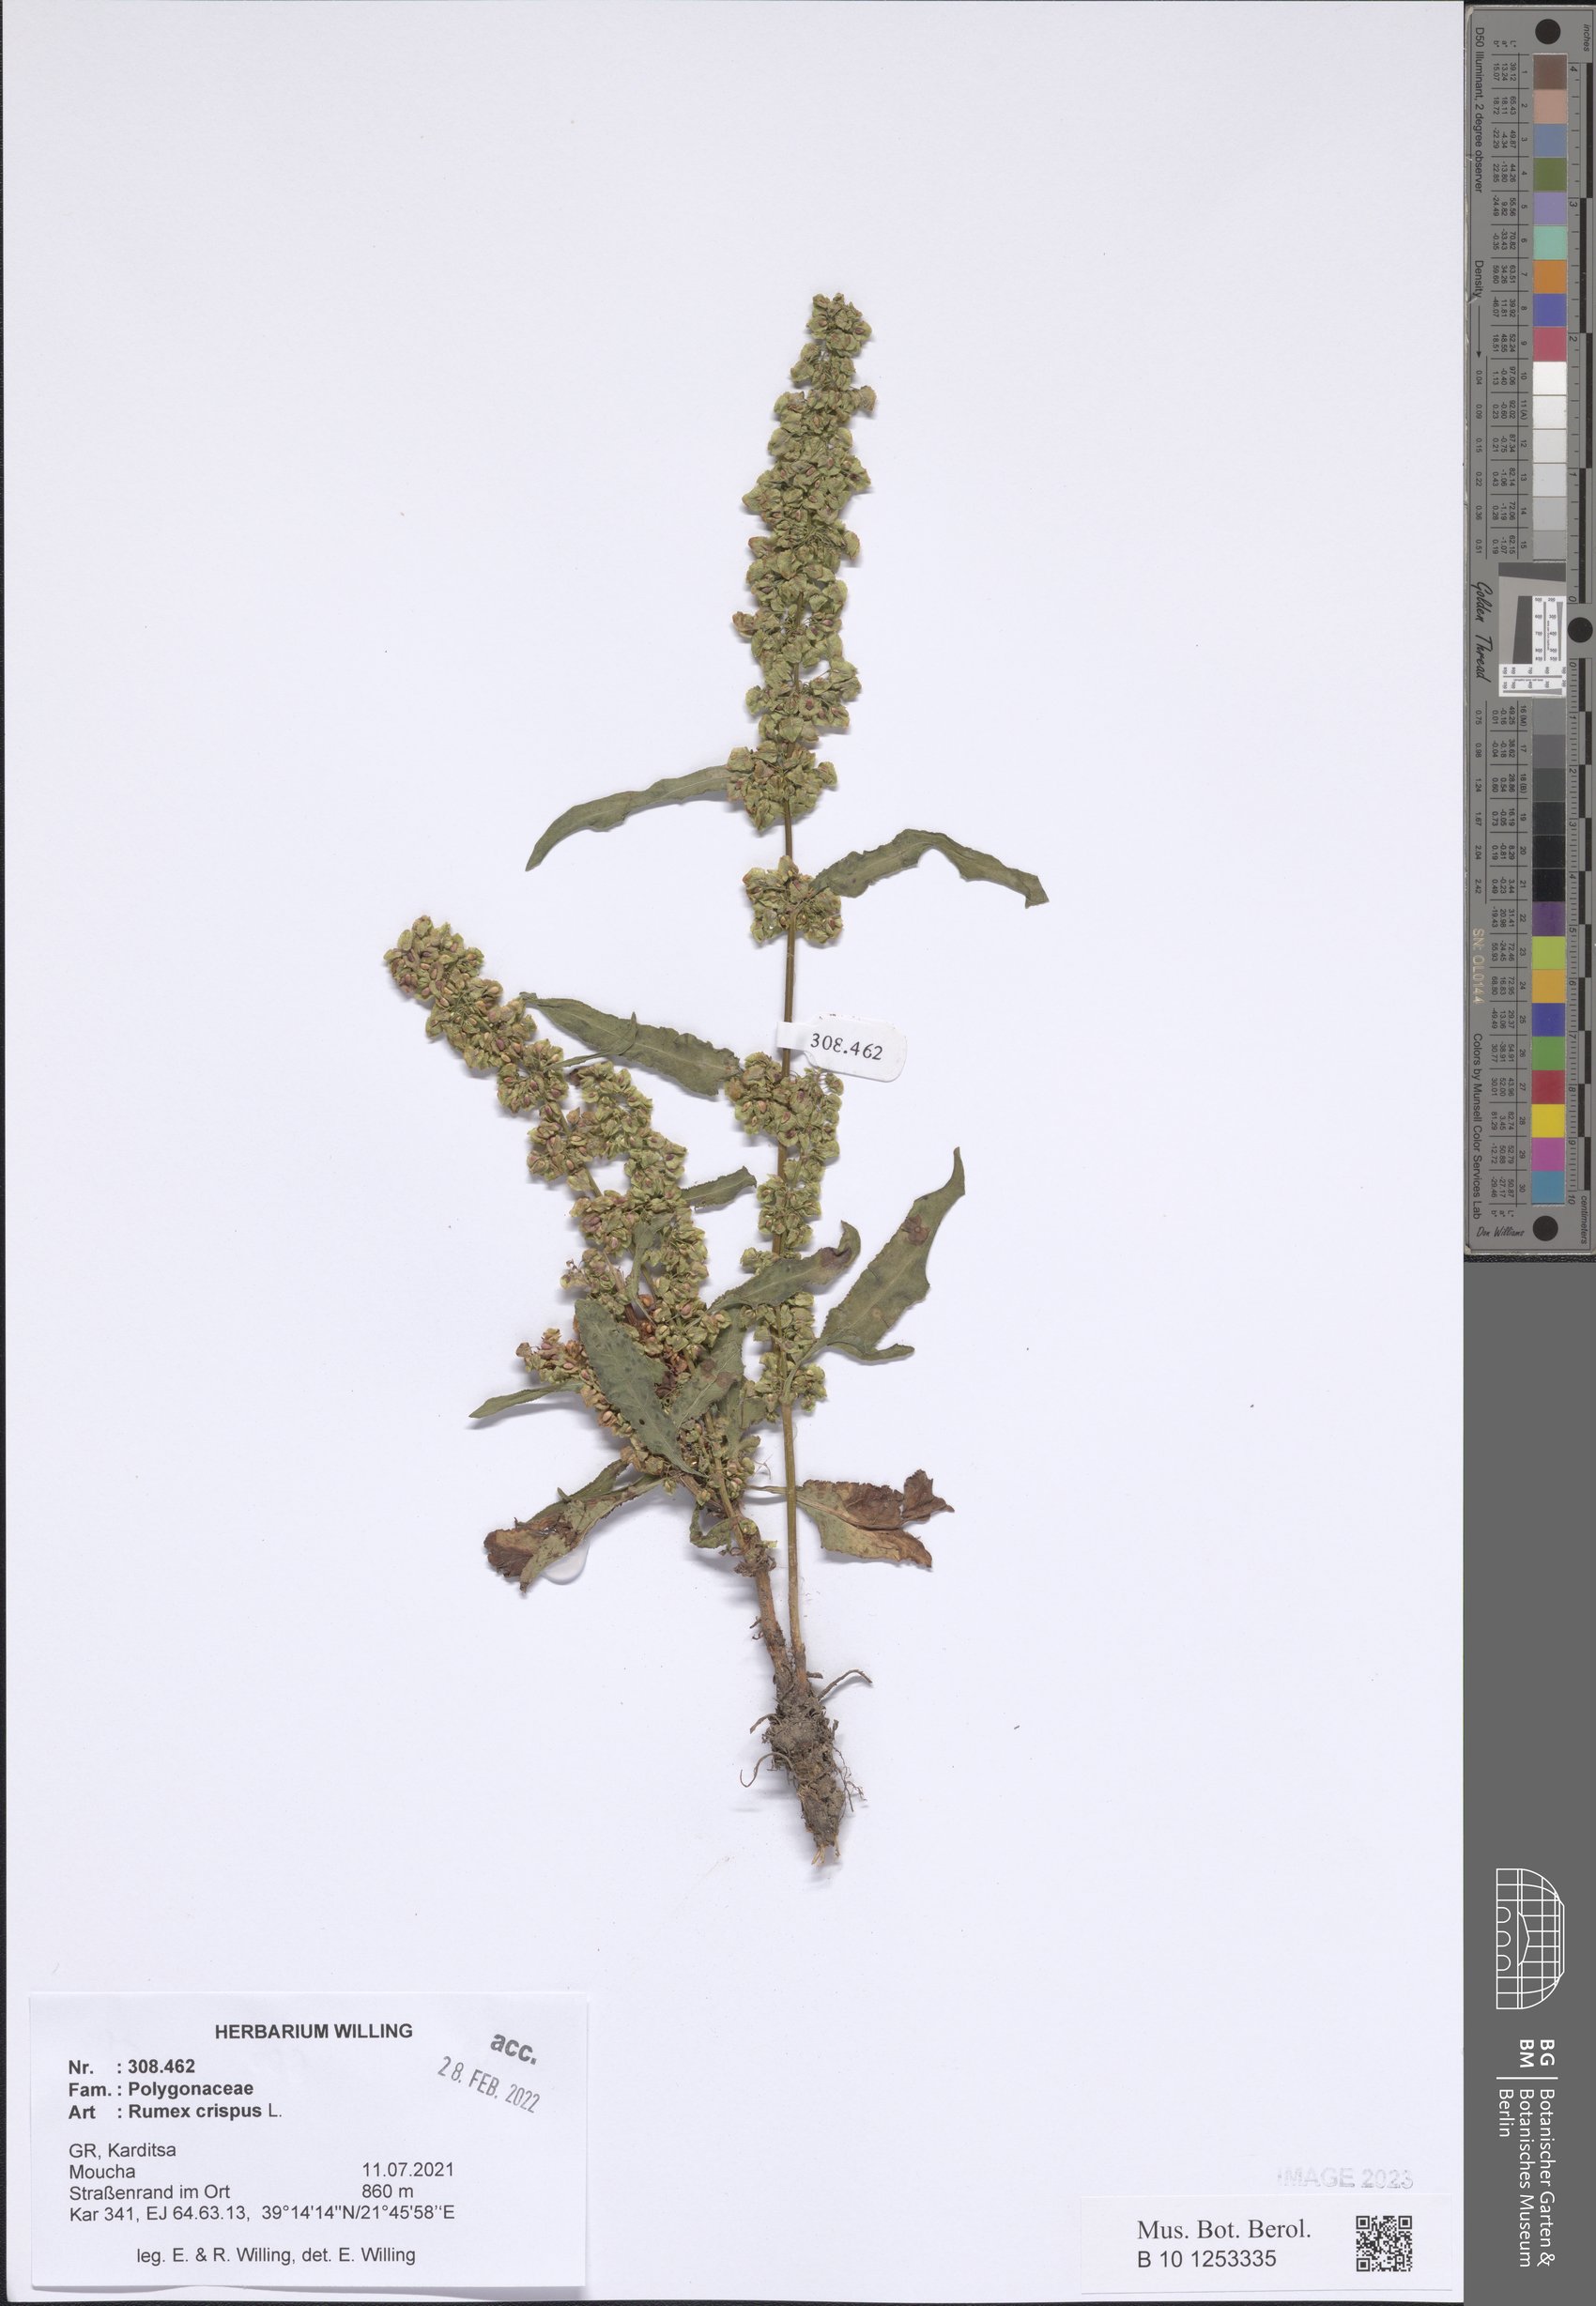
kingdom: Plantae
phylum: Tracheophyta
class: Magnoliopsida
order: Caryophyllales
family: Polygonaceae
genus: Rumex
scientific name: Rumex crispus
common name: Curled dock
